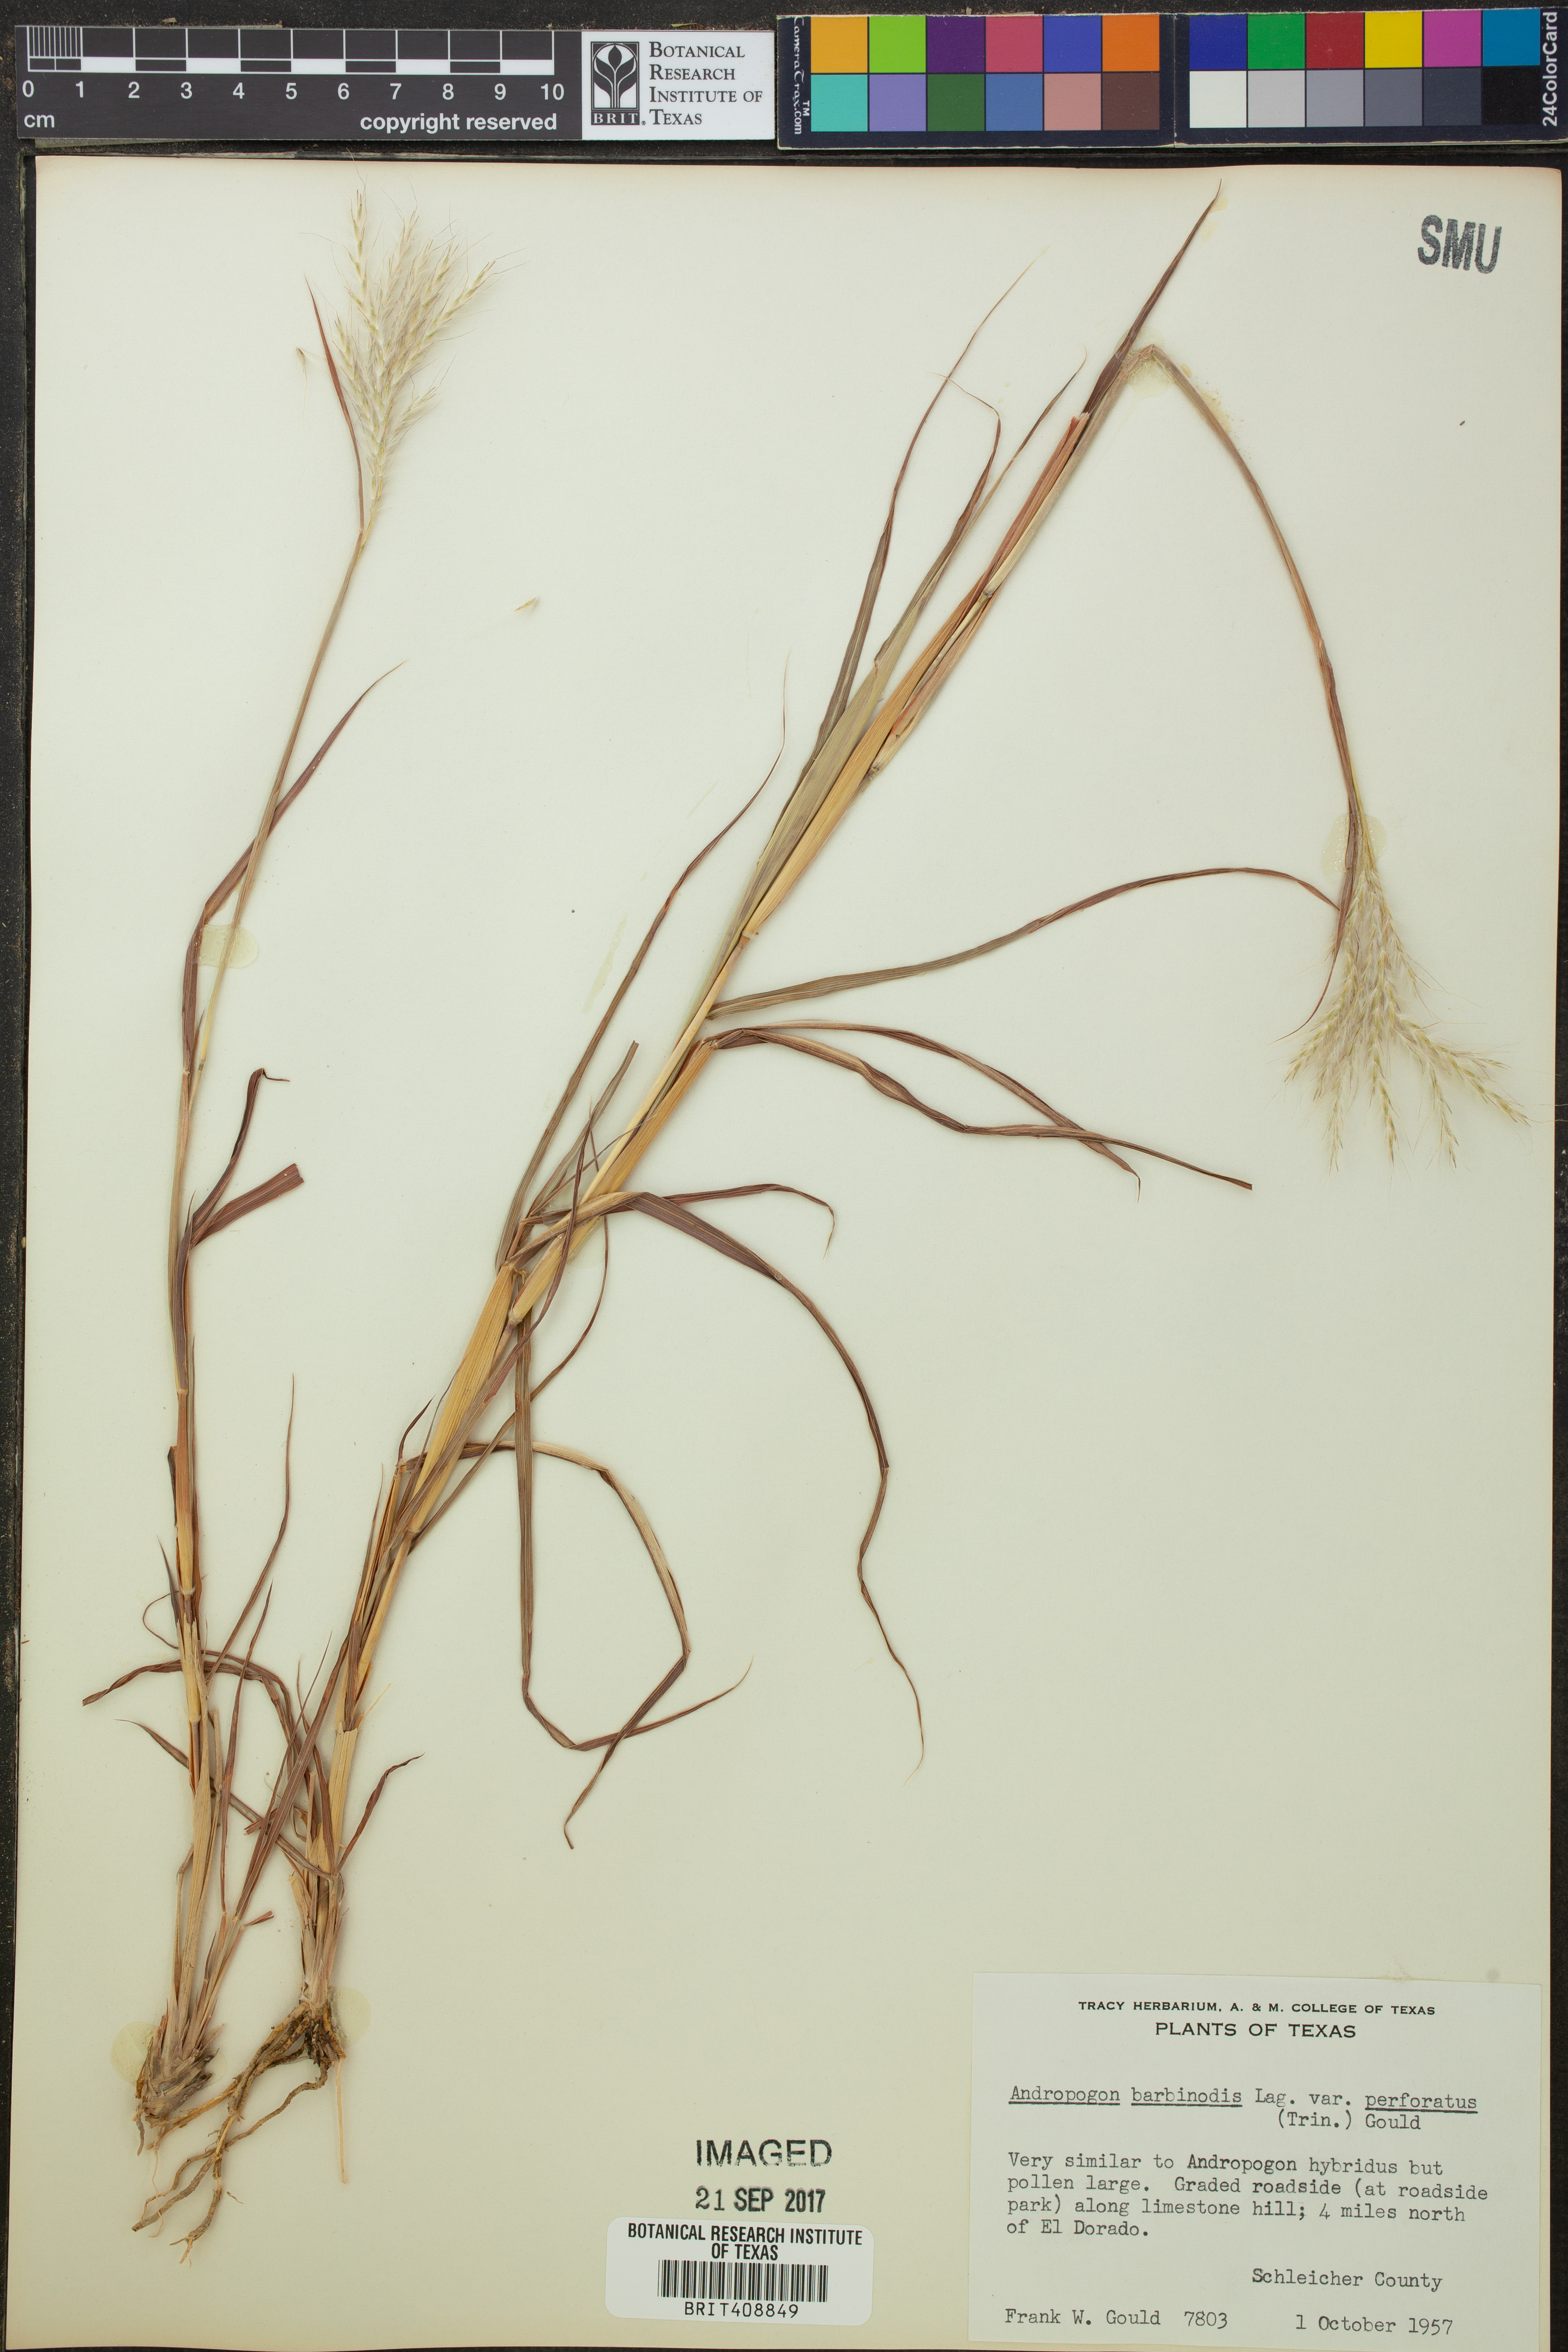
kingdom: Plantae
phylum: Tracheophyta
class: Liliopsida
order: Poales
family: Poaceae
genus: Bothriochloa
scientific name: Bothriochloa barbinodis
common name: Cane bluestem
